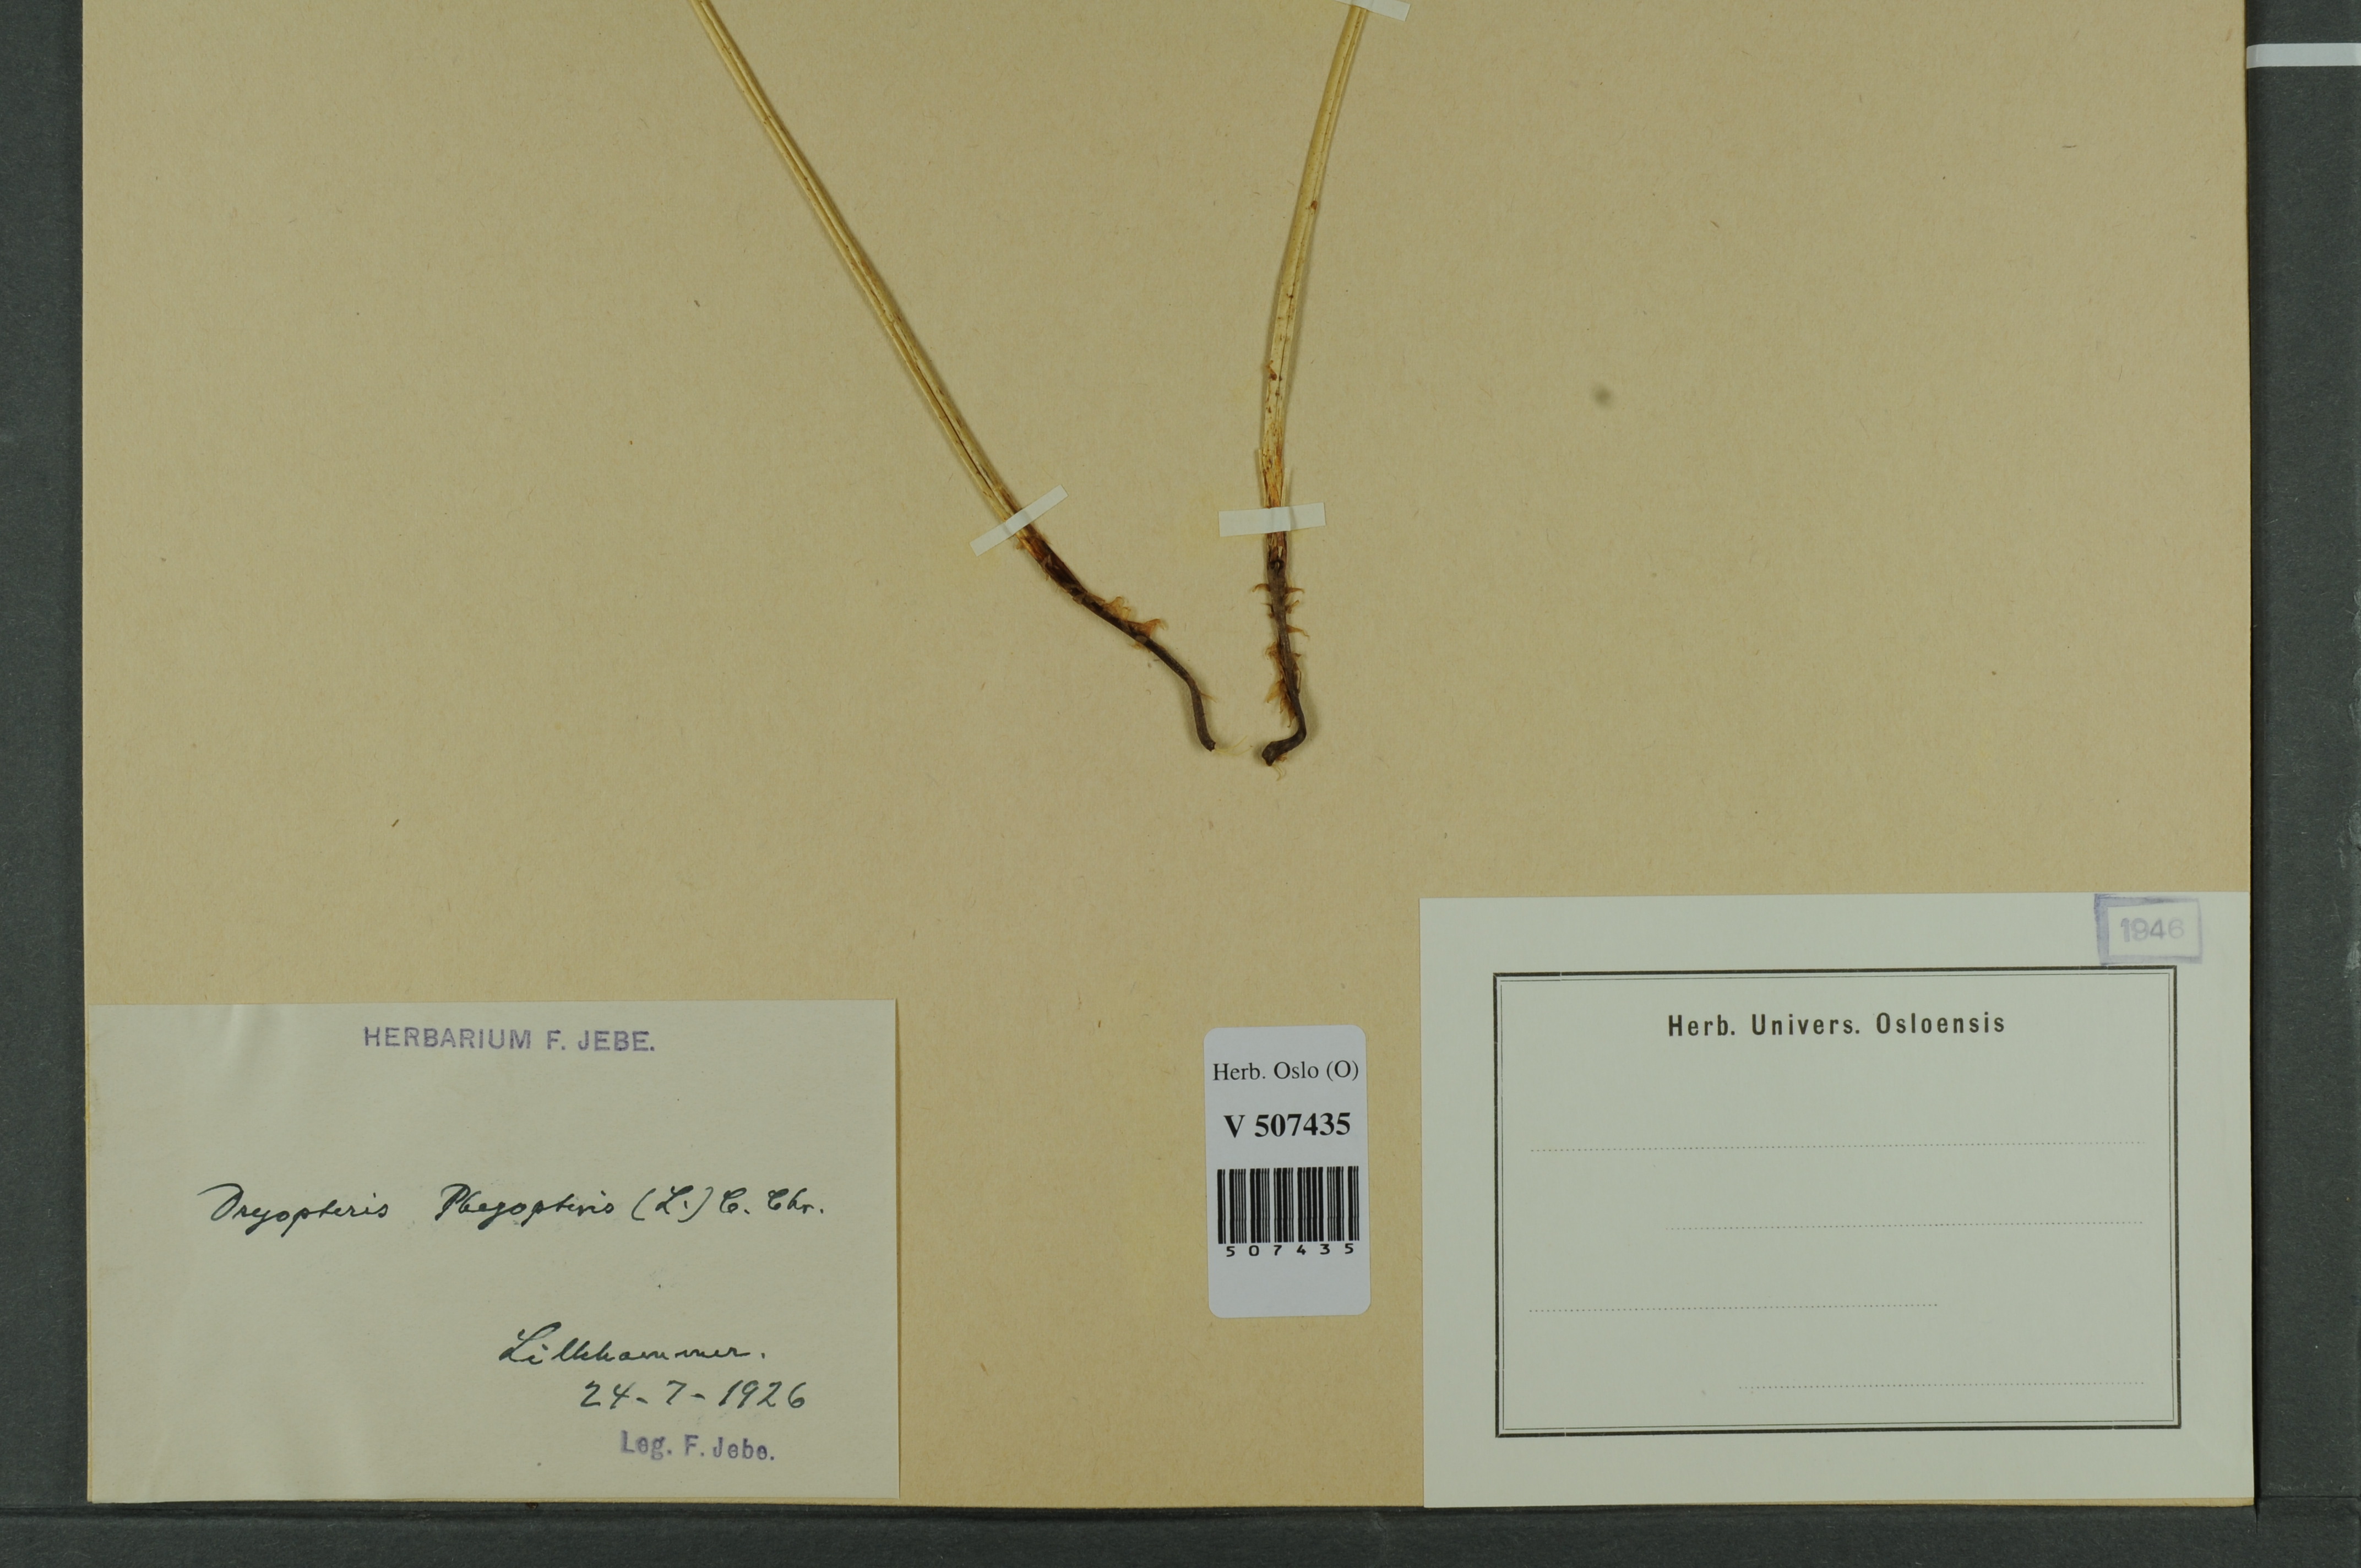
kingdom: Plantae
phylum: Tracheophyta
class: Polypodiopsida
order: Polypodiales
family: Thelypteridaceae
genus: Phegopteris
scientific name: Phegopteris connectilis
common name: Beech fern
